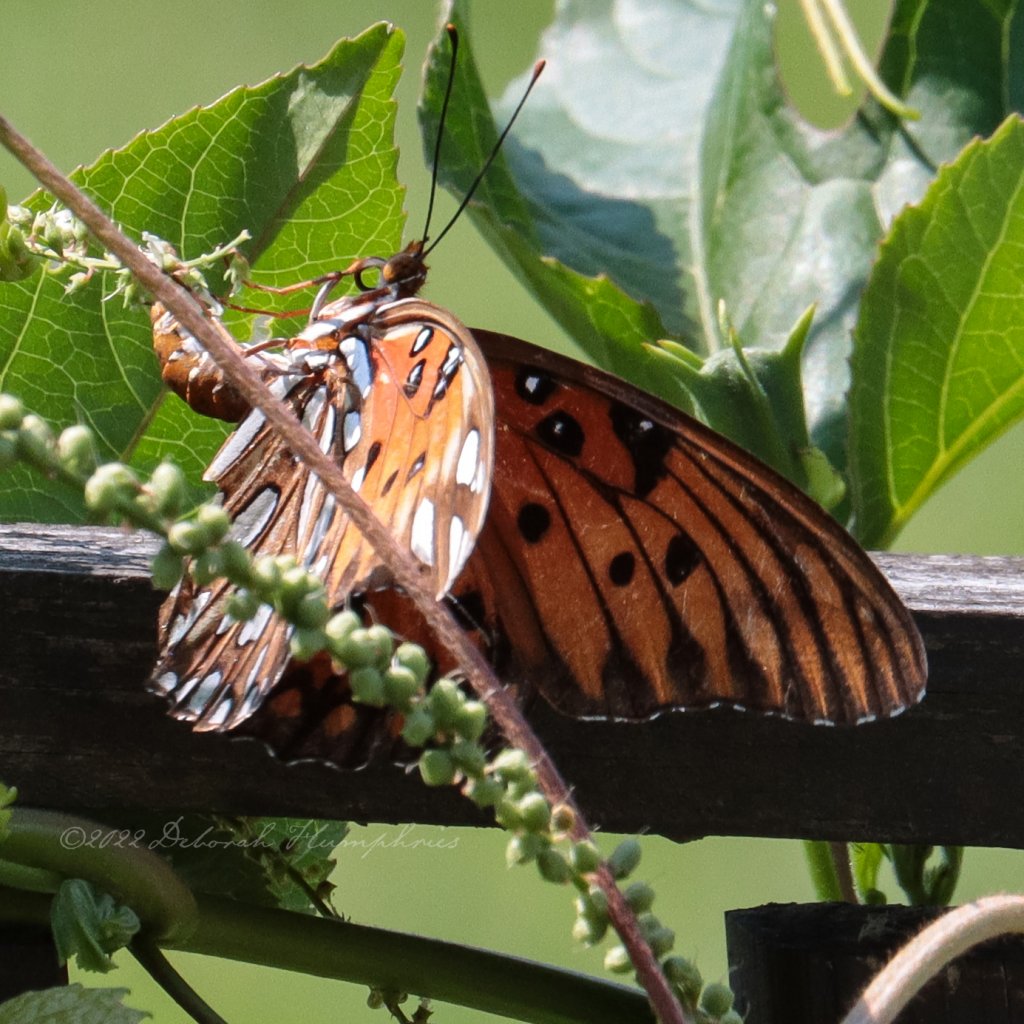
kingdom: Animalia
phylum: Arthropoda
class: Insecta
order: Lepidoptera
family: Nymphalidae
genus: Dione
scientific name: Dione vanillae
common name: Gulf Fritillary
